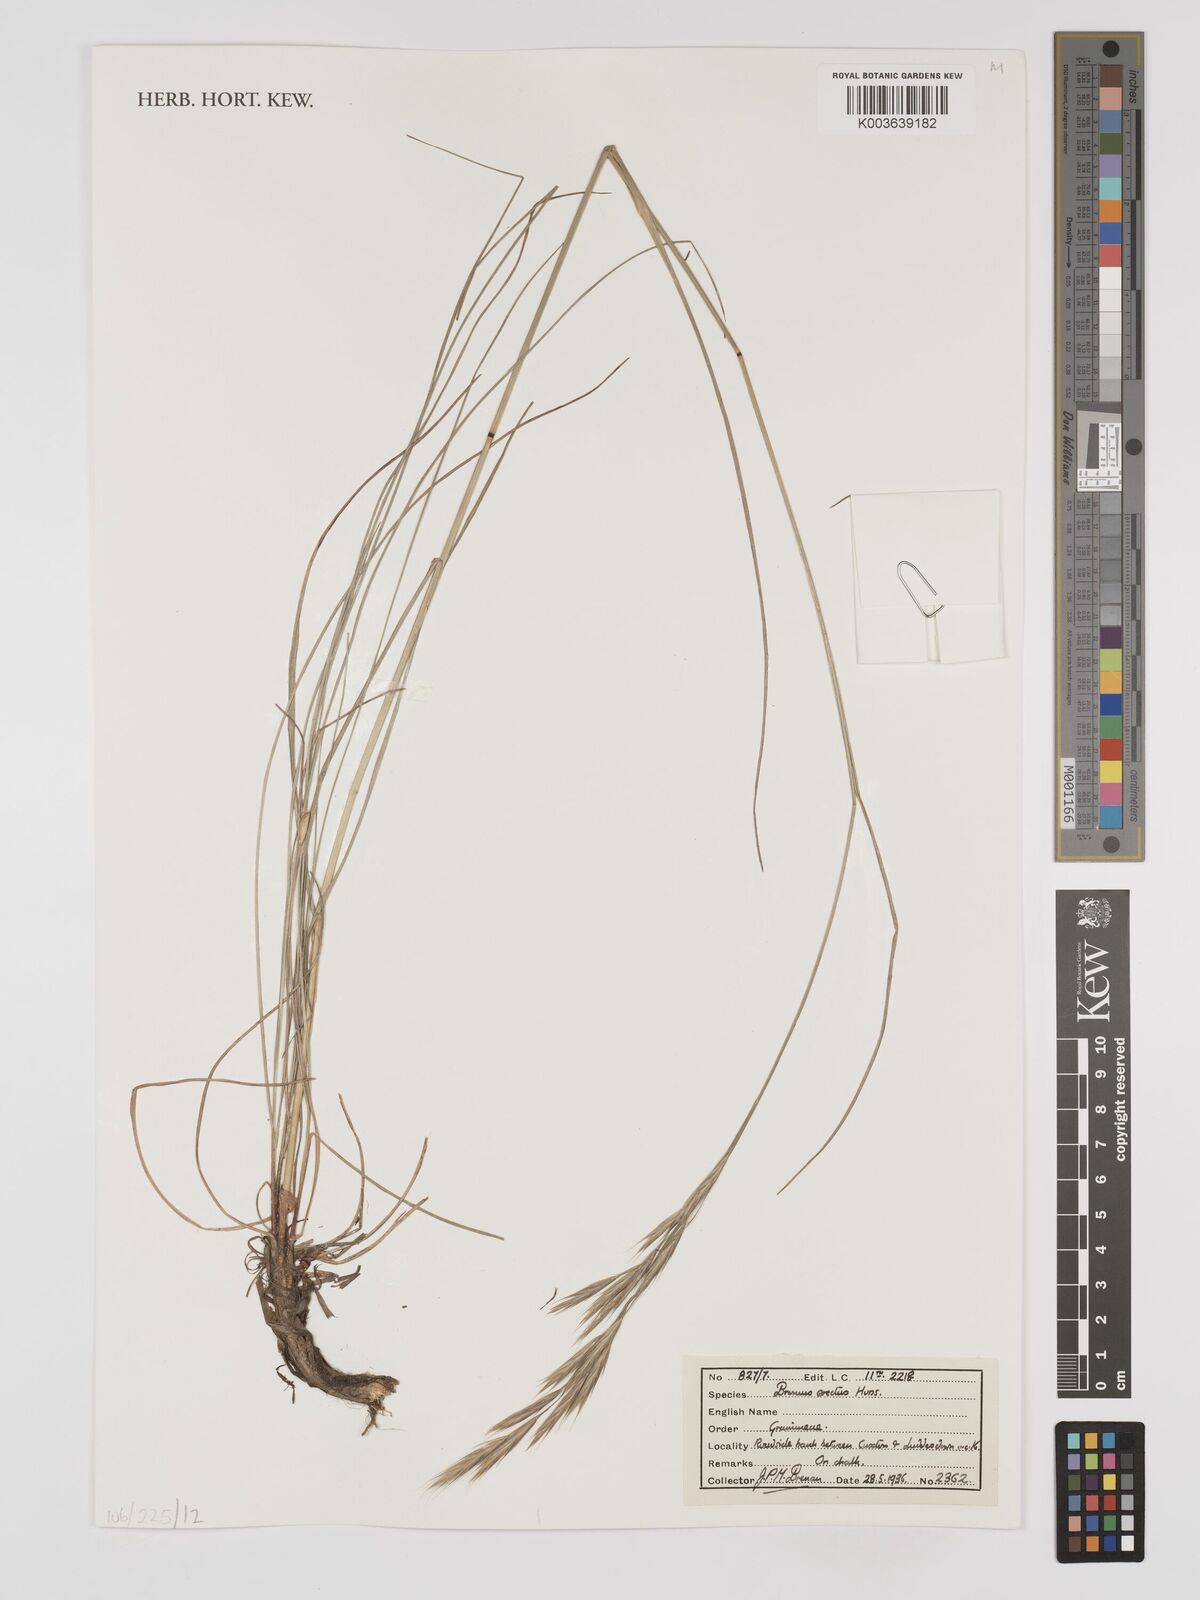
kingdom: Plantae
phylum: Tracheophyta
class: Liliopsida
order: Poales
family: Poaceae
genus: Bromus
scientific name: Bromus erectus
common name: Erect brome
